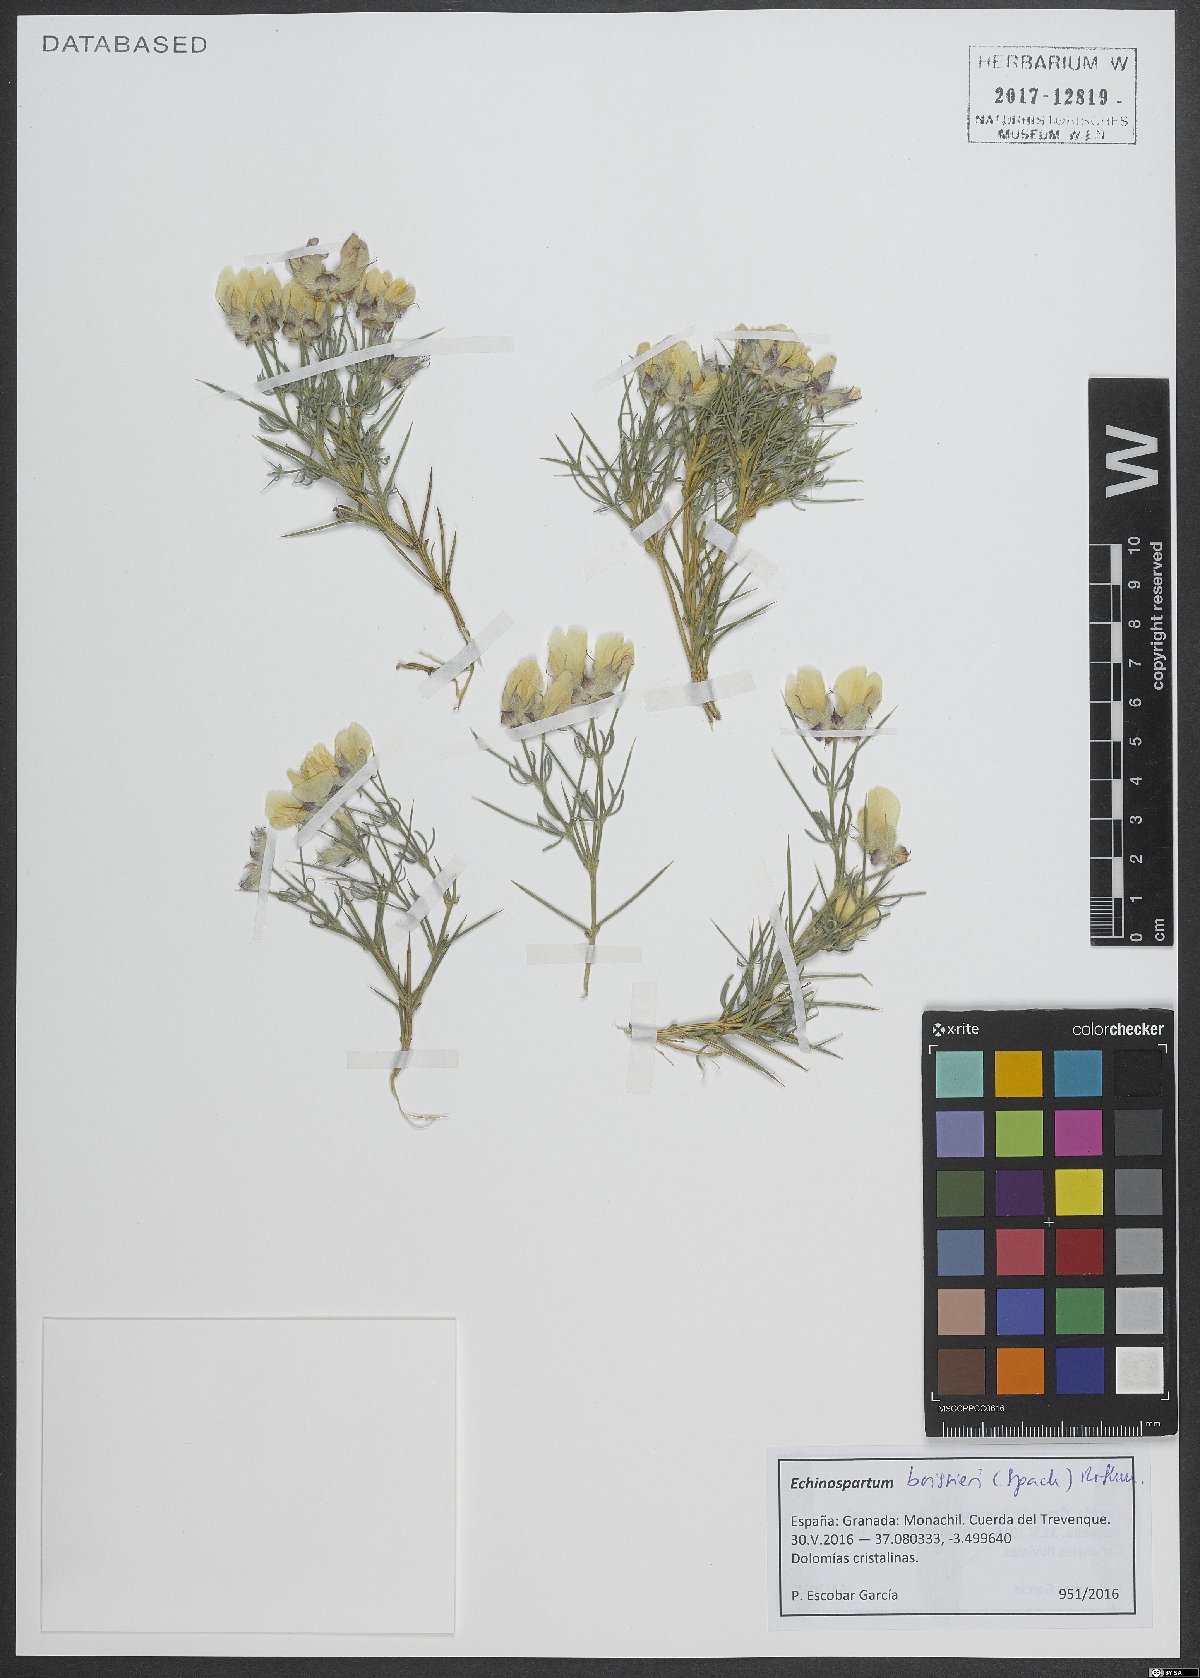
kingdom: Plantae
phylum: Tracheophyta
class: Magnoliopsida
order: Fabales
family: Fabaceae
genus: Echinospartum
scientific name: Echinospartum boissieri
